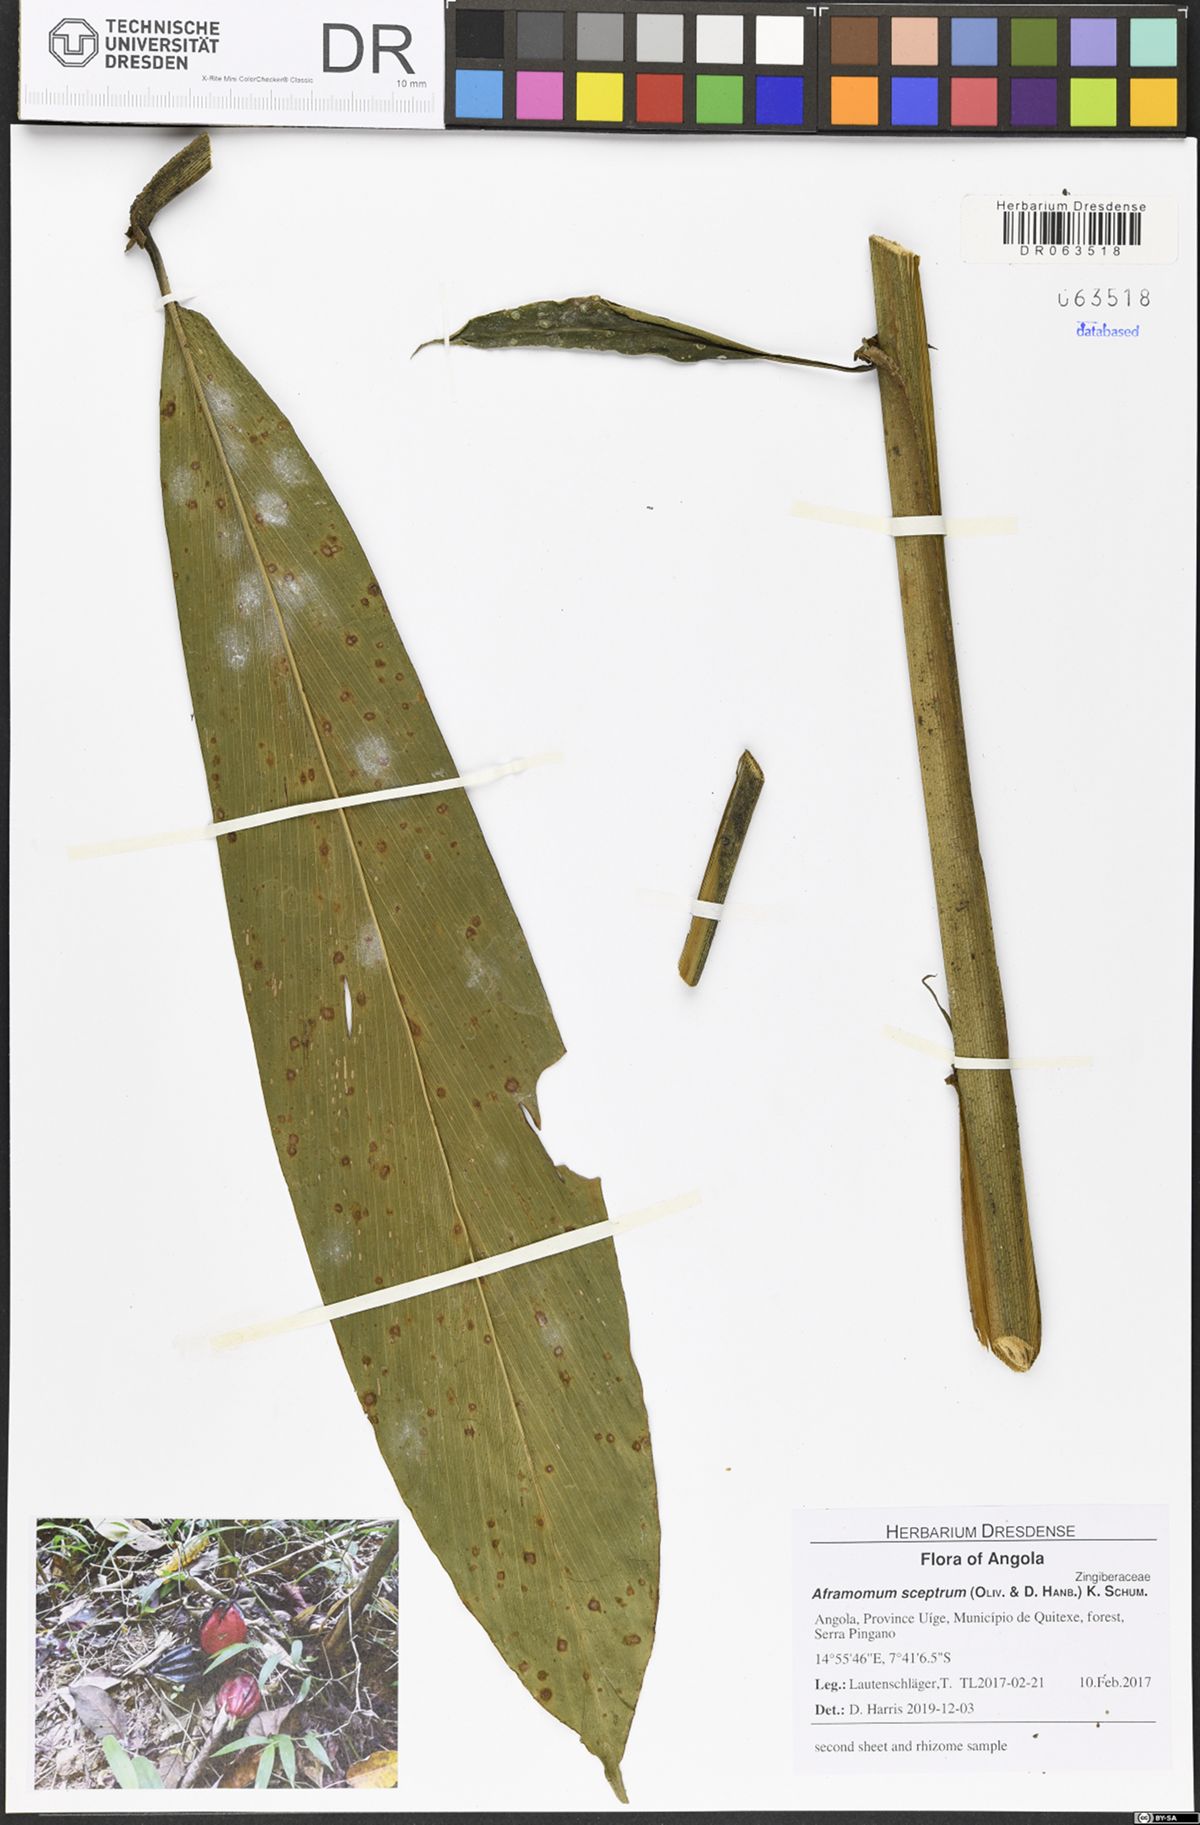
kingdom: Plantae
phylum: Tracheophyta
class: Liliopsida
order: Zingiberales
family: Zingiberaceae
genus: Aframomum
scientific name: Aframomum cereum
